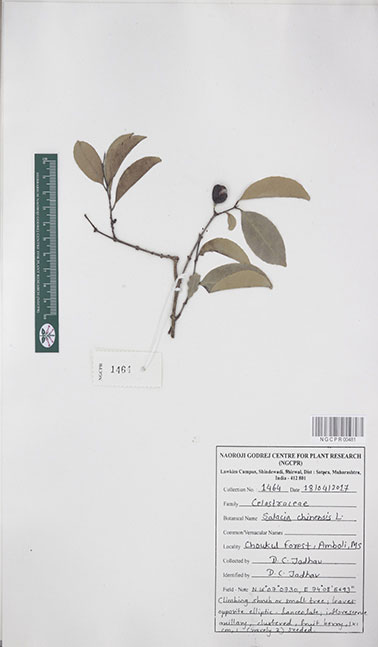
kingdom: Plantae
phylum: Tracheophyta
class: Magnoliopsida
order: Celastrales
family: Celastraceae
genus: Salacia
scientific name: Salacia chinensis
